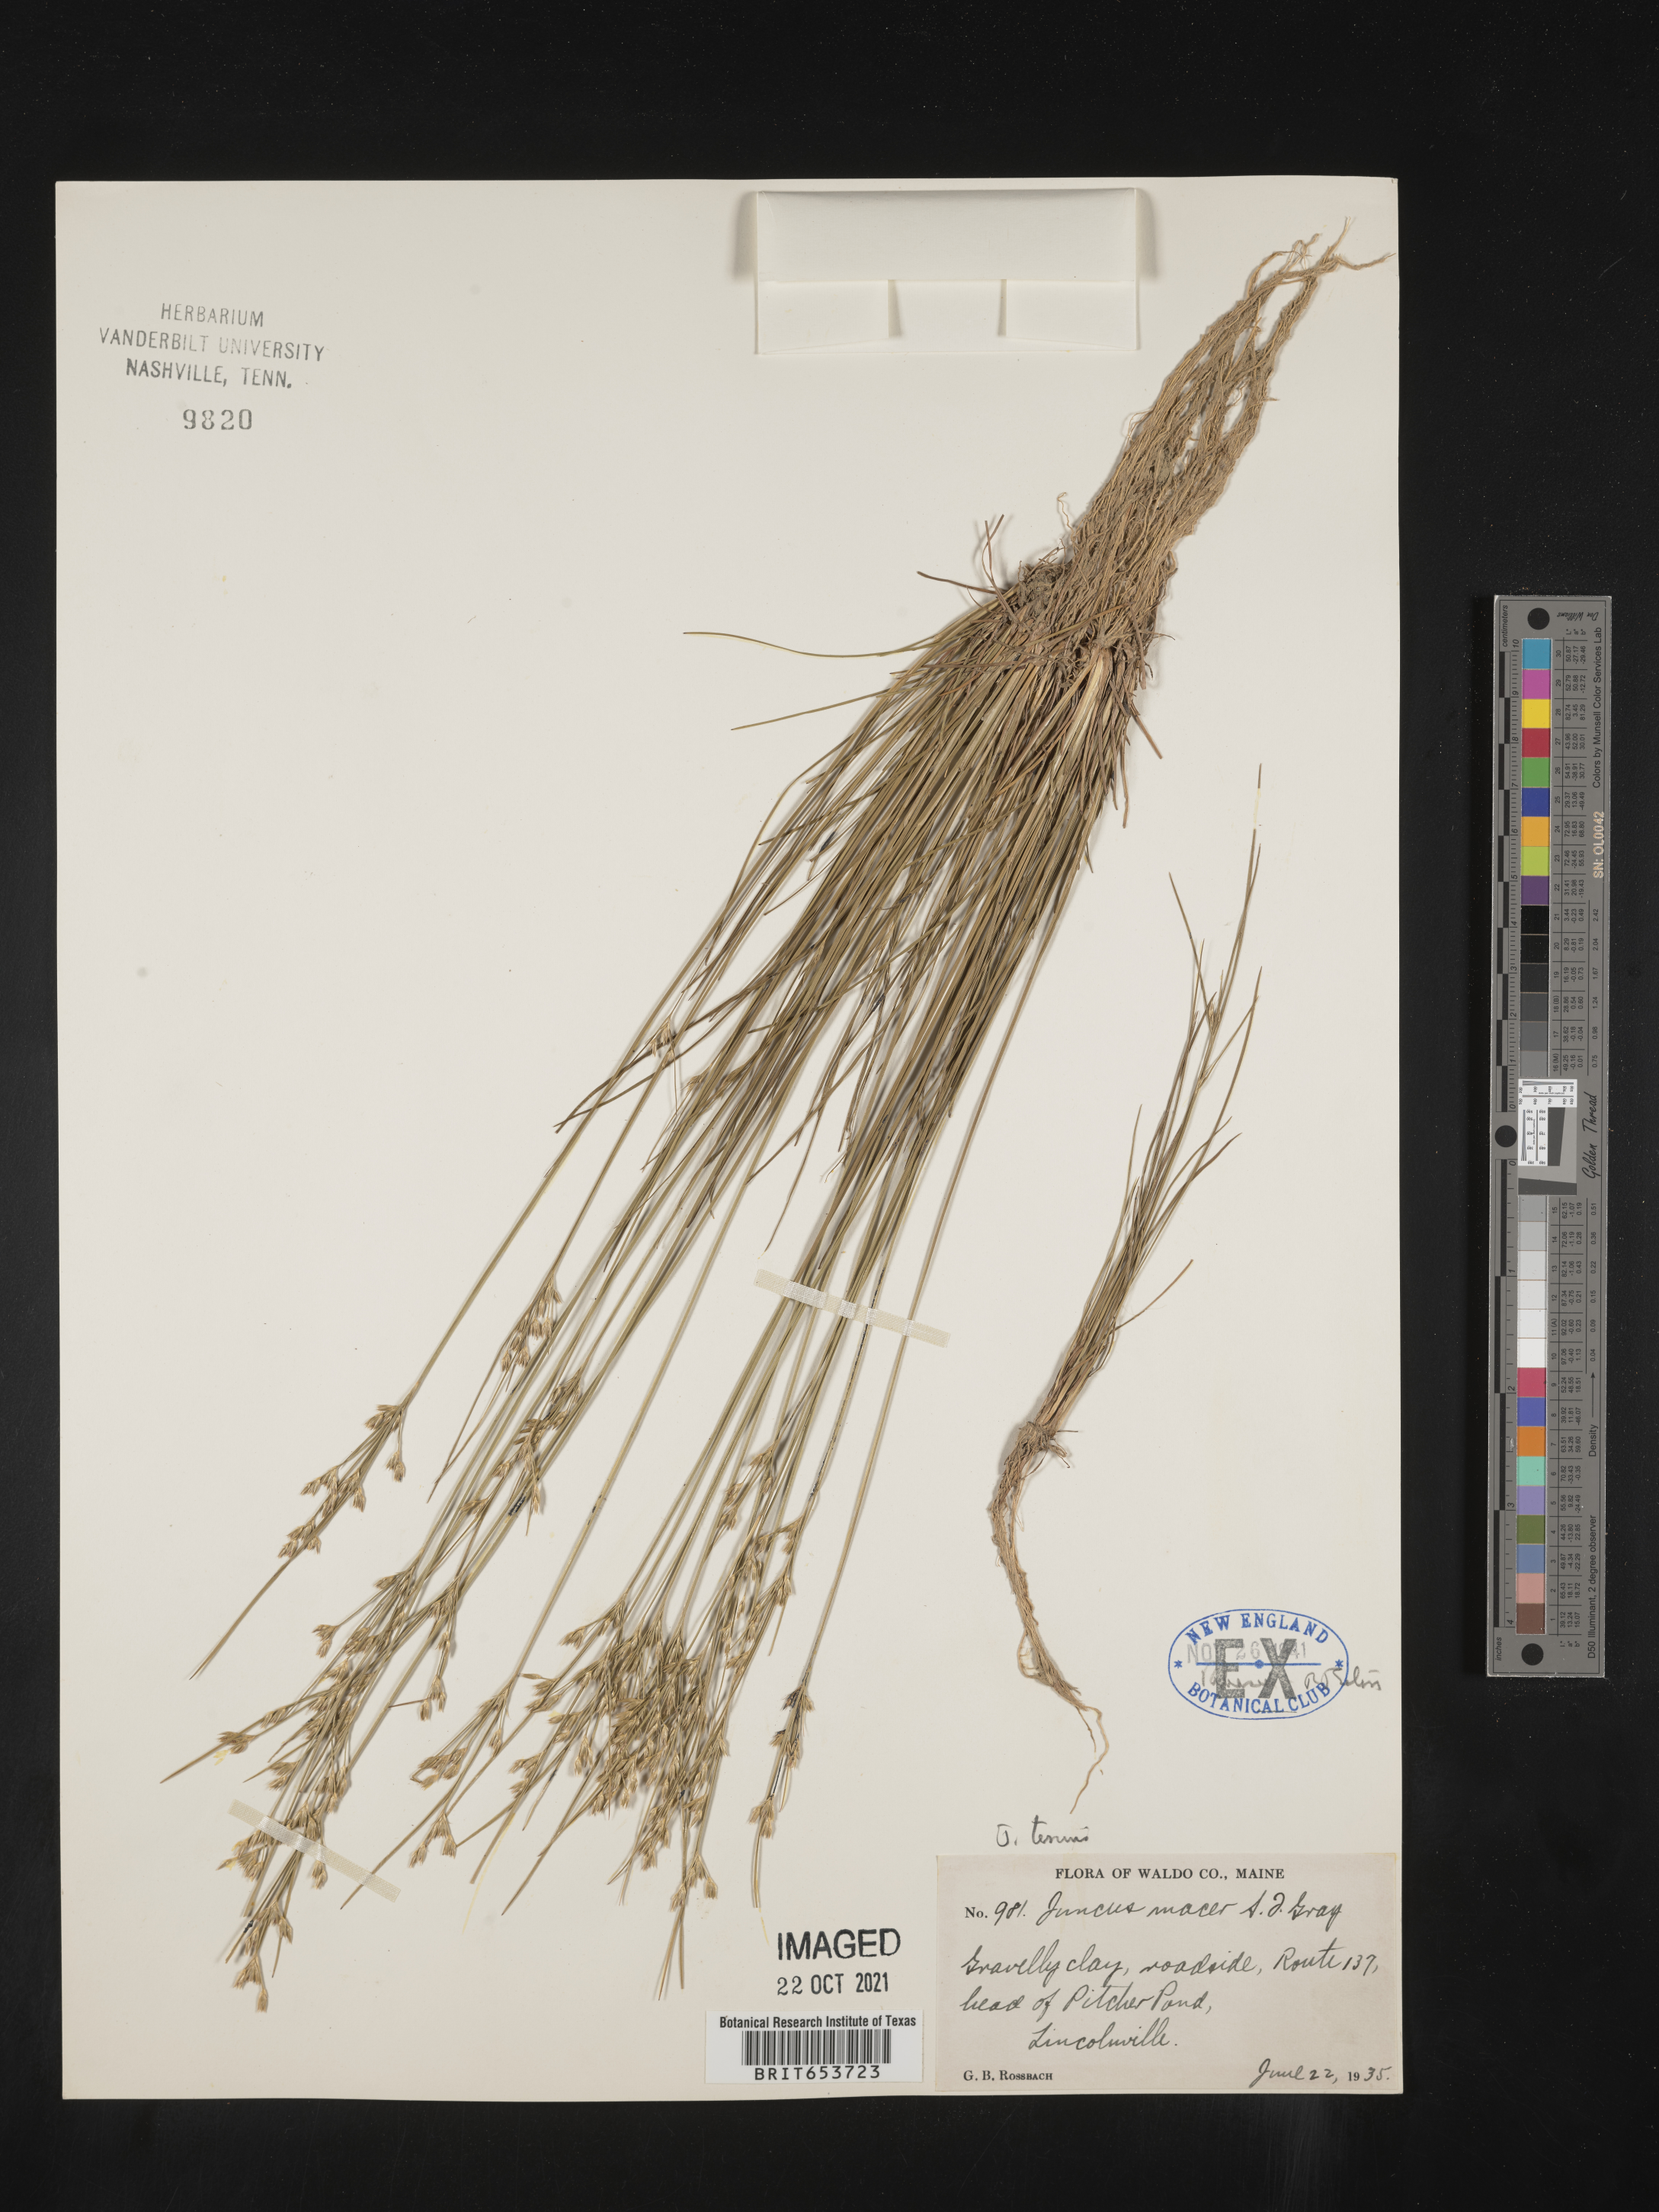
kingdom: Plantae
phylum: Tracheophyta
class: Liliopsida
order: Poales
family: Juncaceae
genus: Juncus
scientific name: Juncus tenuis
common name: Slender rush
